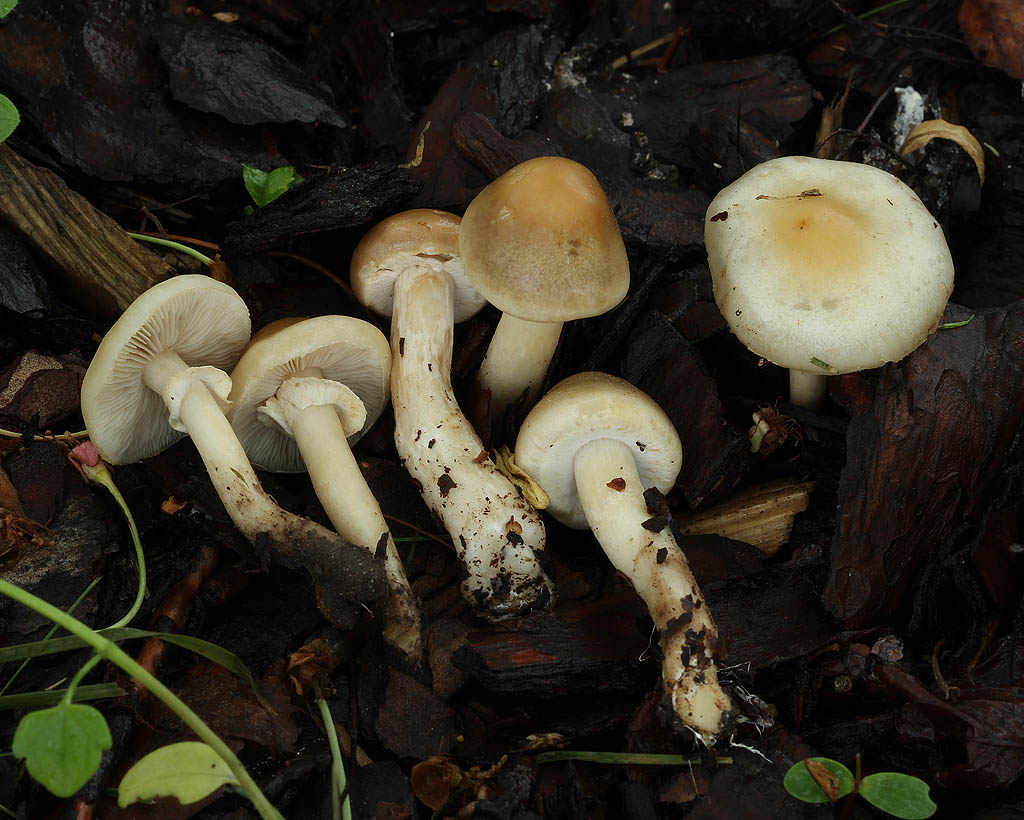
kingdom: Fungi
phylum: Basidiomycota
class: Agaricomycetes
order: Agaricales
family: Strophariaceae
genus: Agrocybe
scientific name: Agrocybe praecox
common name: tidlig agerhat
